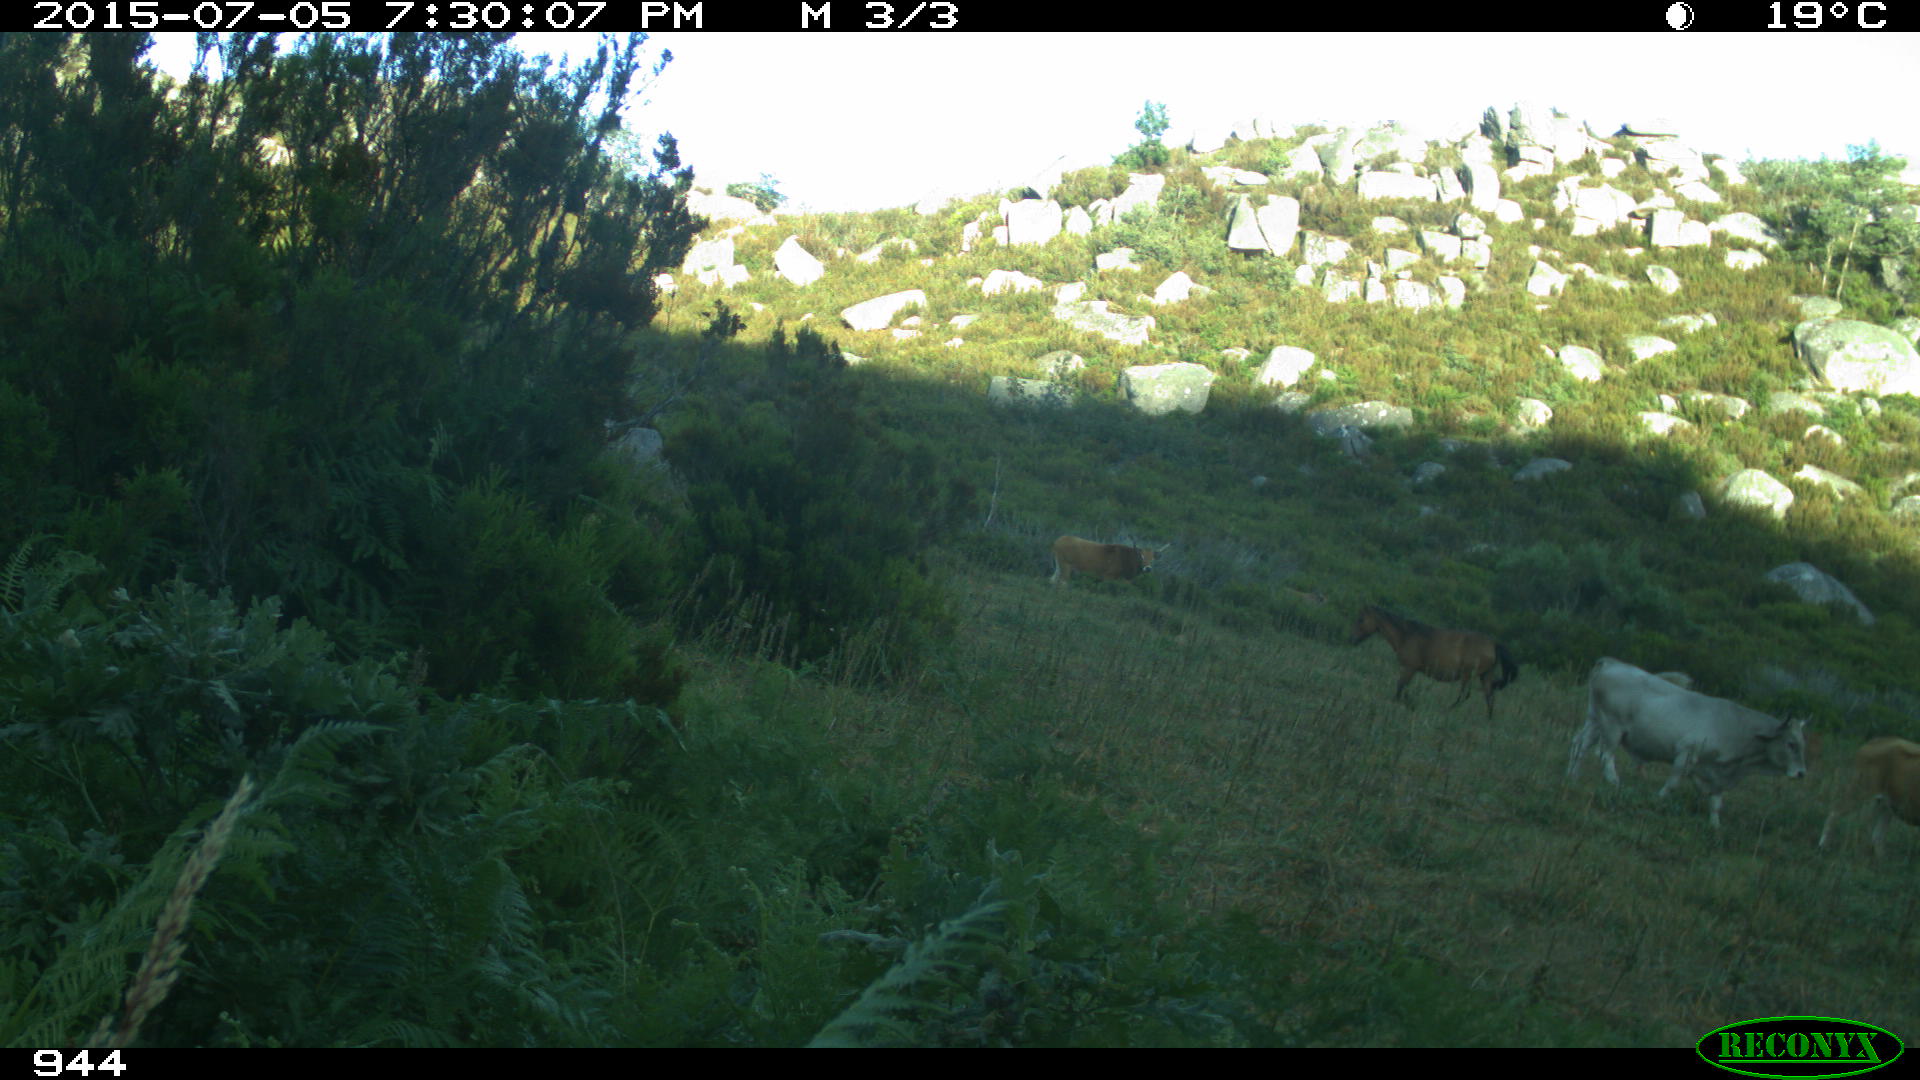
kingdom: Animalia
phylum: Chordata
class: Mammalia
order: Artiodactyla
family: Bovidae
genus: Bos
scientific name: Bos taurus
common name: Domesticated cattle
